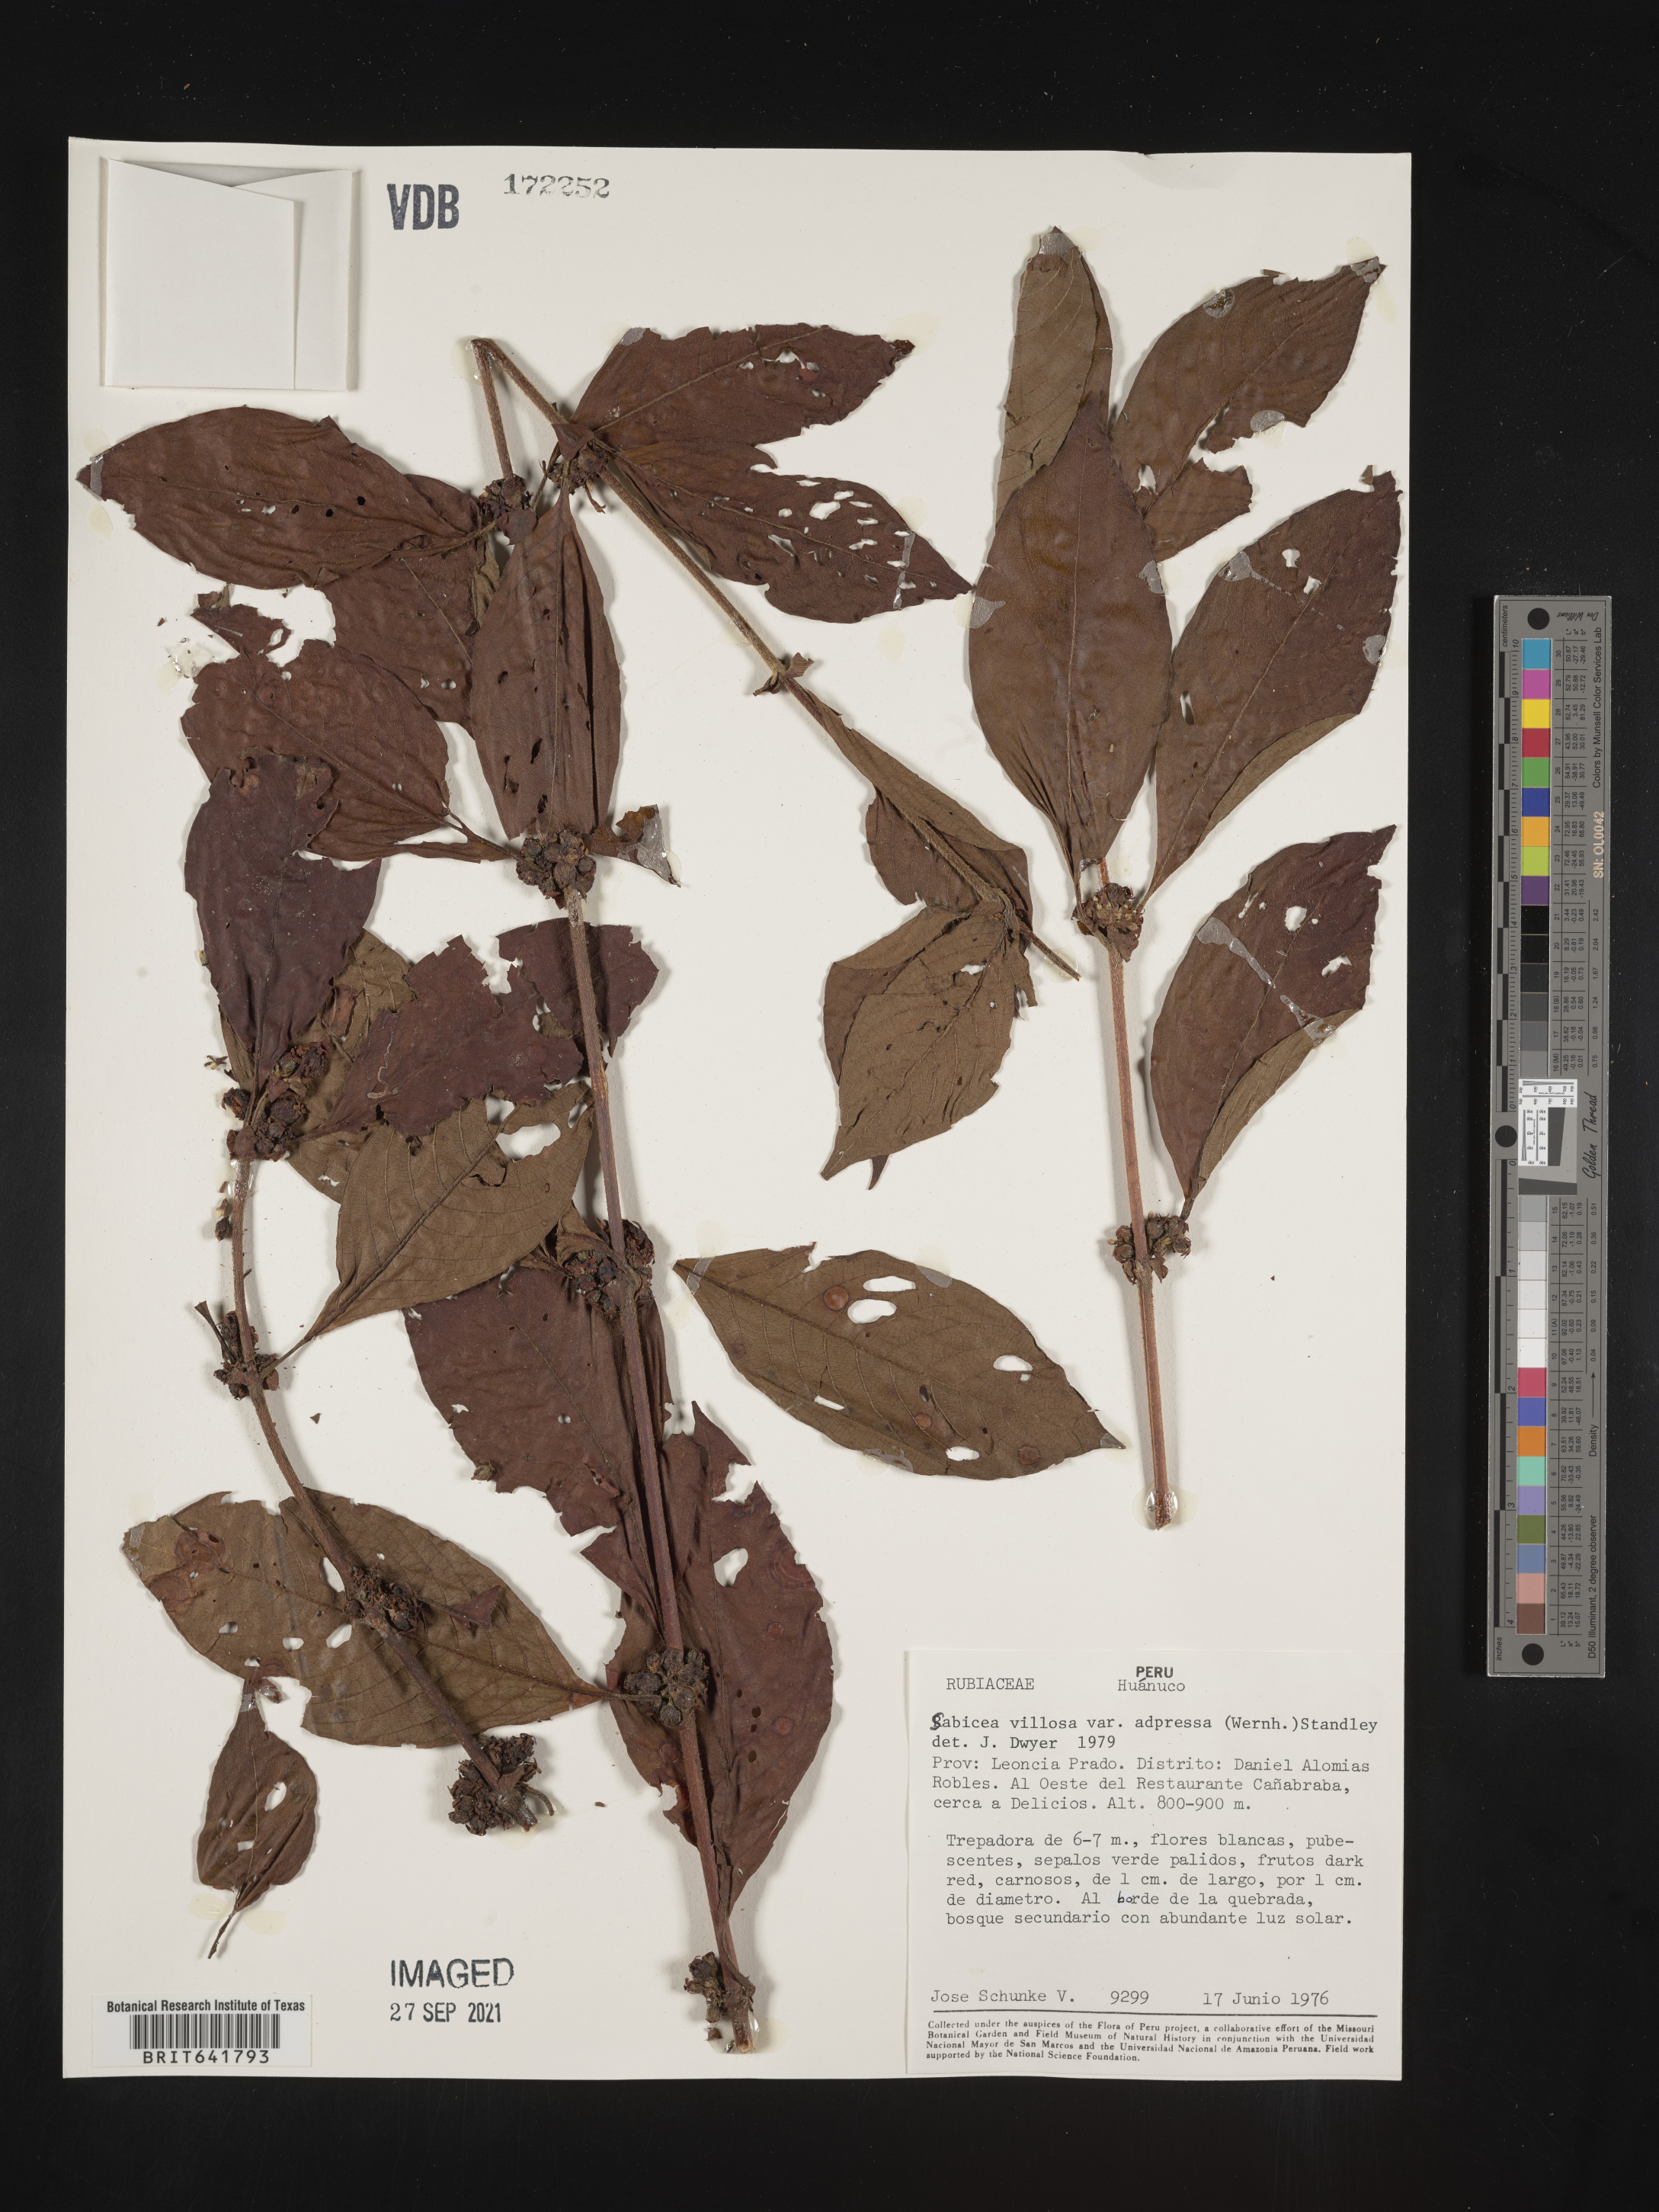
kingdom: Plantae
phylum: Tracheophyta
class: Magnoliopsida
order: Gentianales
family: Rubiaceae
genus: Sabicea
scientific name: Sabicea
